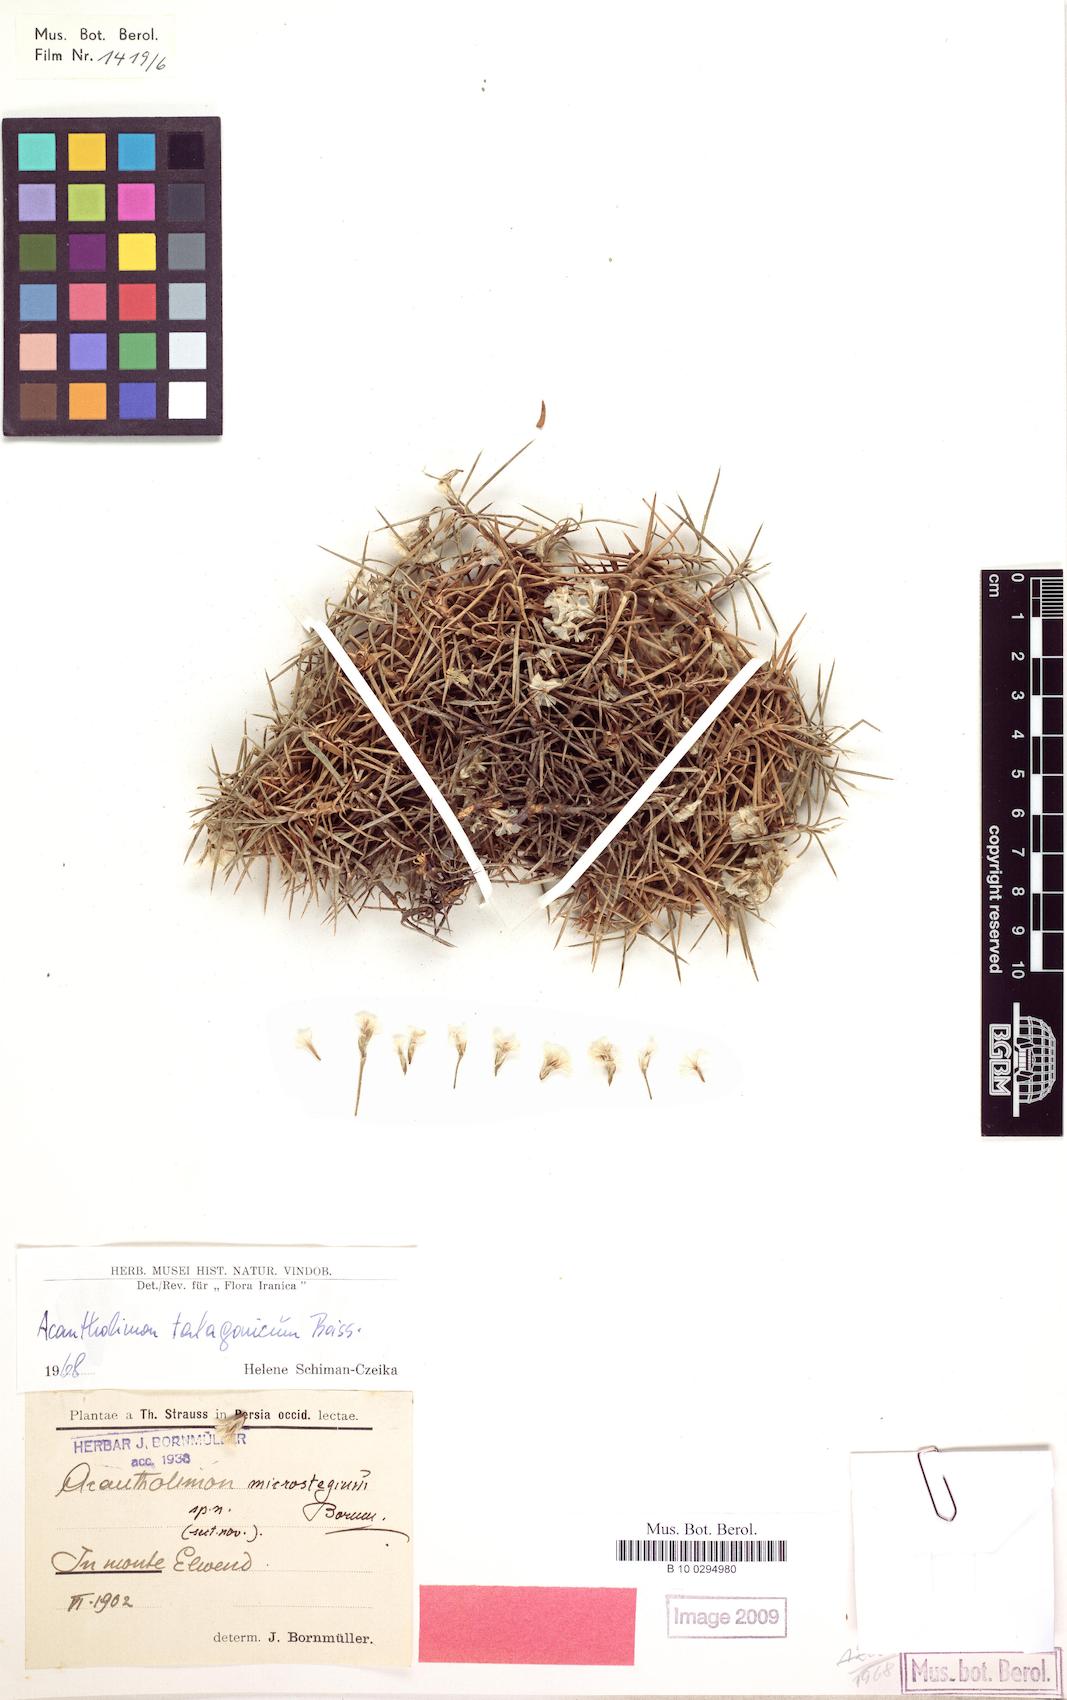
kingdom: Plantae
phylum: Tracheophyta
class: Magnoliopsida
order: Caryophyllales
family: Plumbaginaceae
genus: Acantholimon
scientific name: Acantholimon talagonicum
